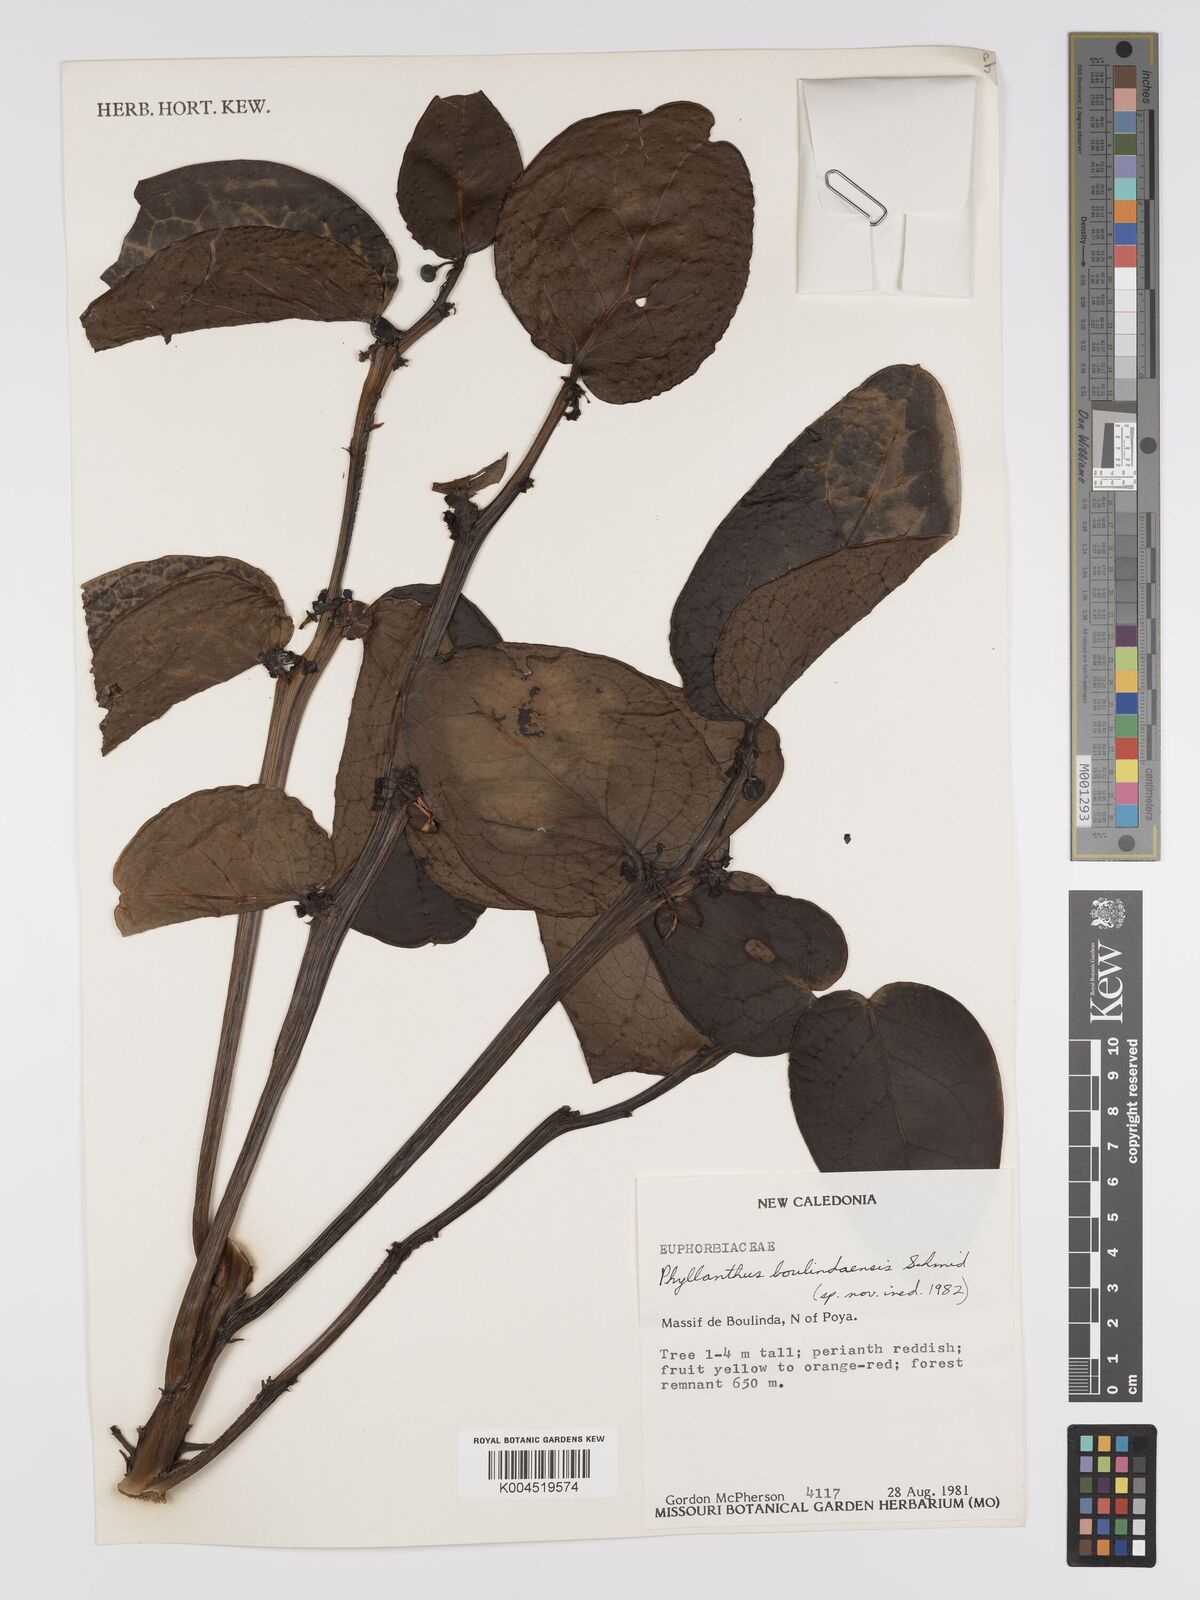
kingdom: Plantae
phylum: Tracheophyta
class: Magnoliopsida
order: Malpighiales
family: Phyllanthaceae
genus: Phyllanthus
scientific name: Phyllanthus
